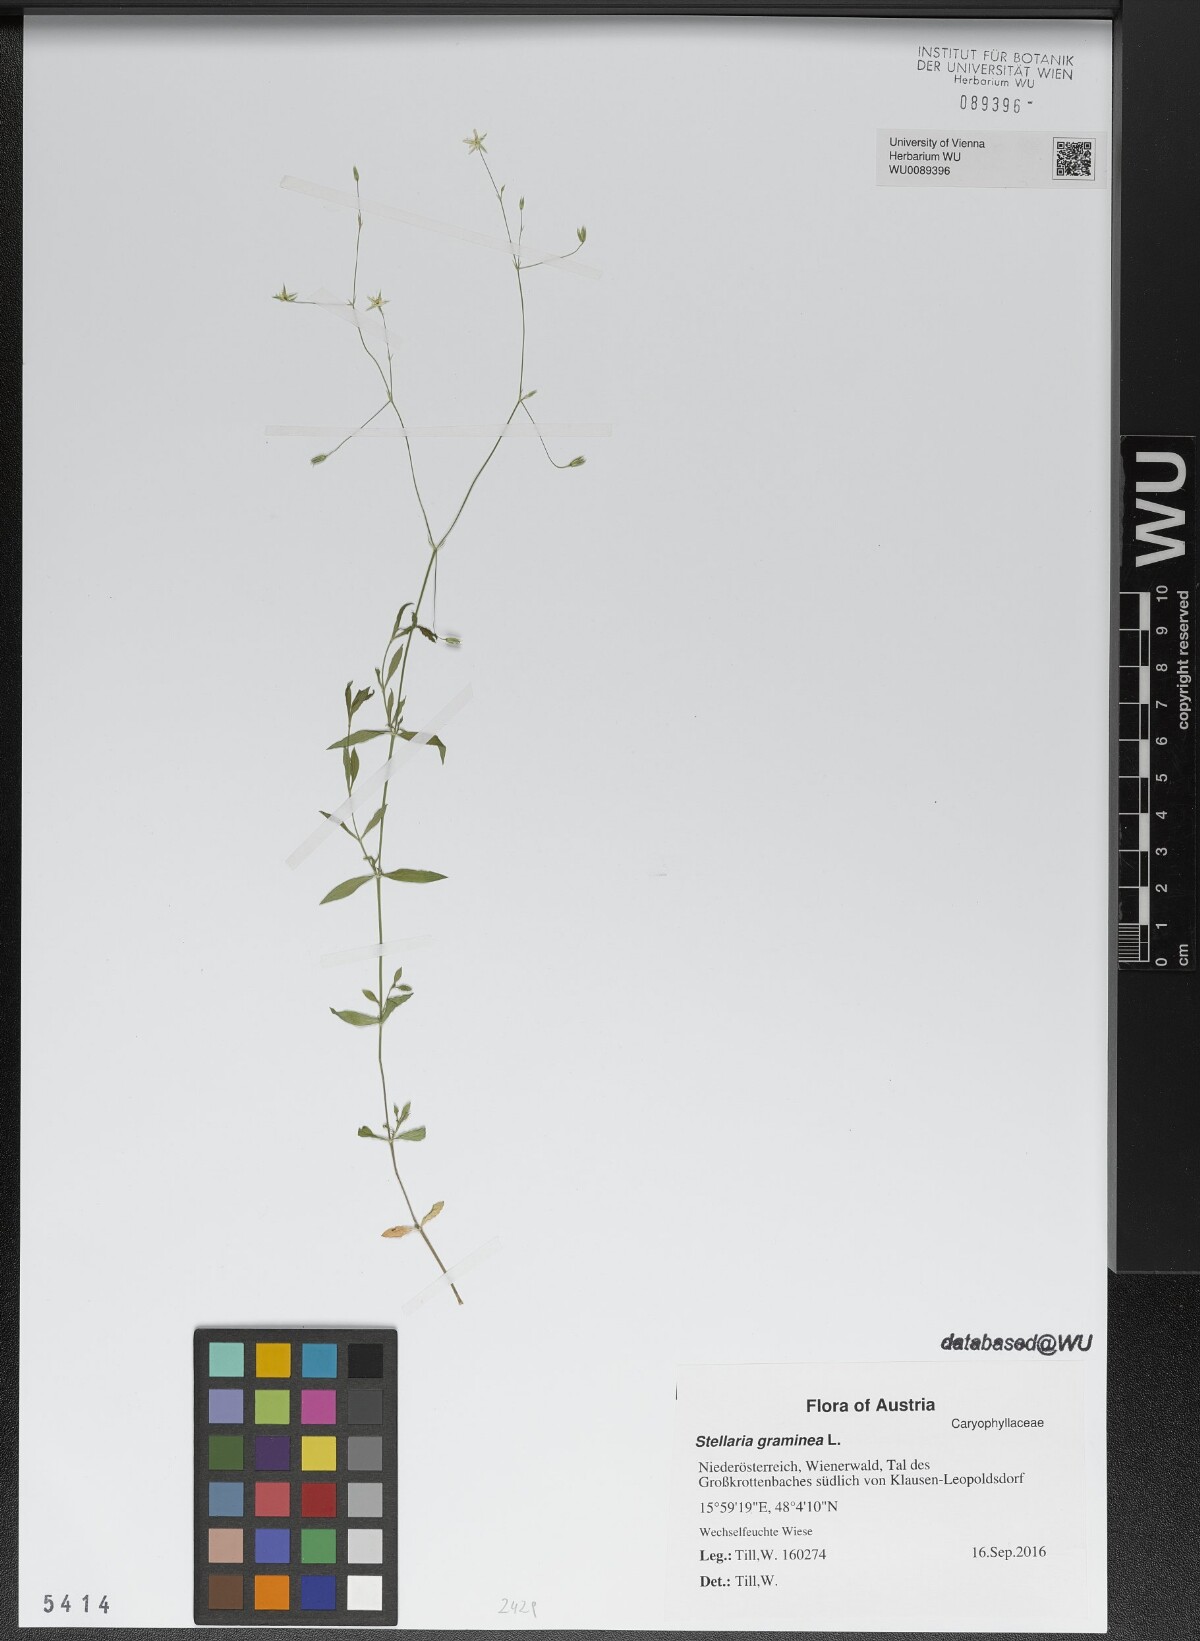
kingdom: Plantae
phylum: Tracheophyta
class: Magnoliopsida
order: Caryophyllales
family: Caryophyllaceae
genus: Stellaria
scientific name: Stellaria graminea
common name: Grass-like starwort
